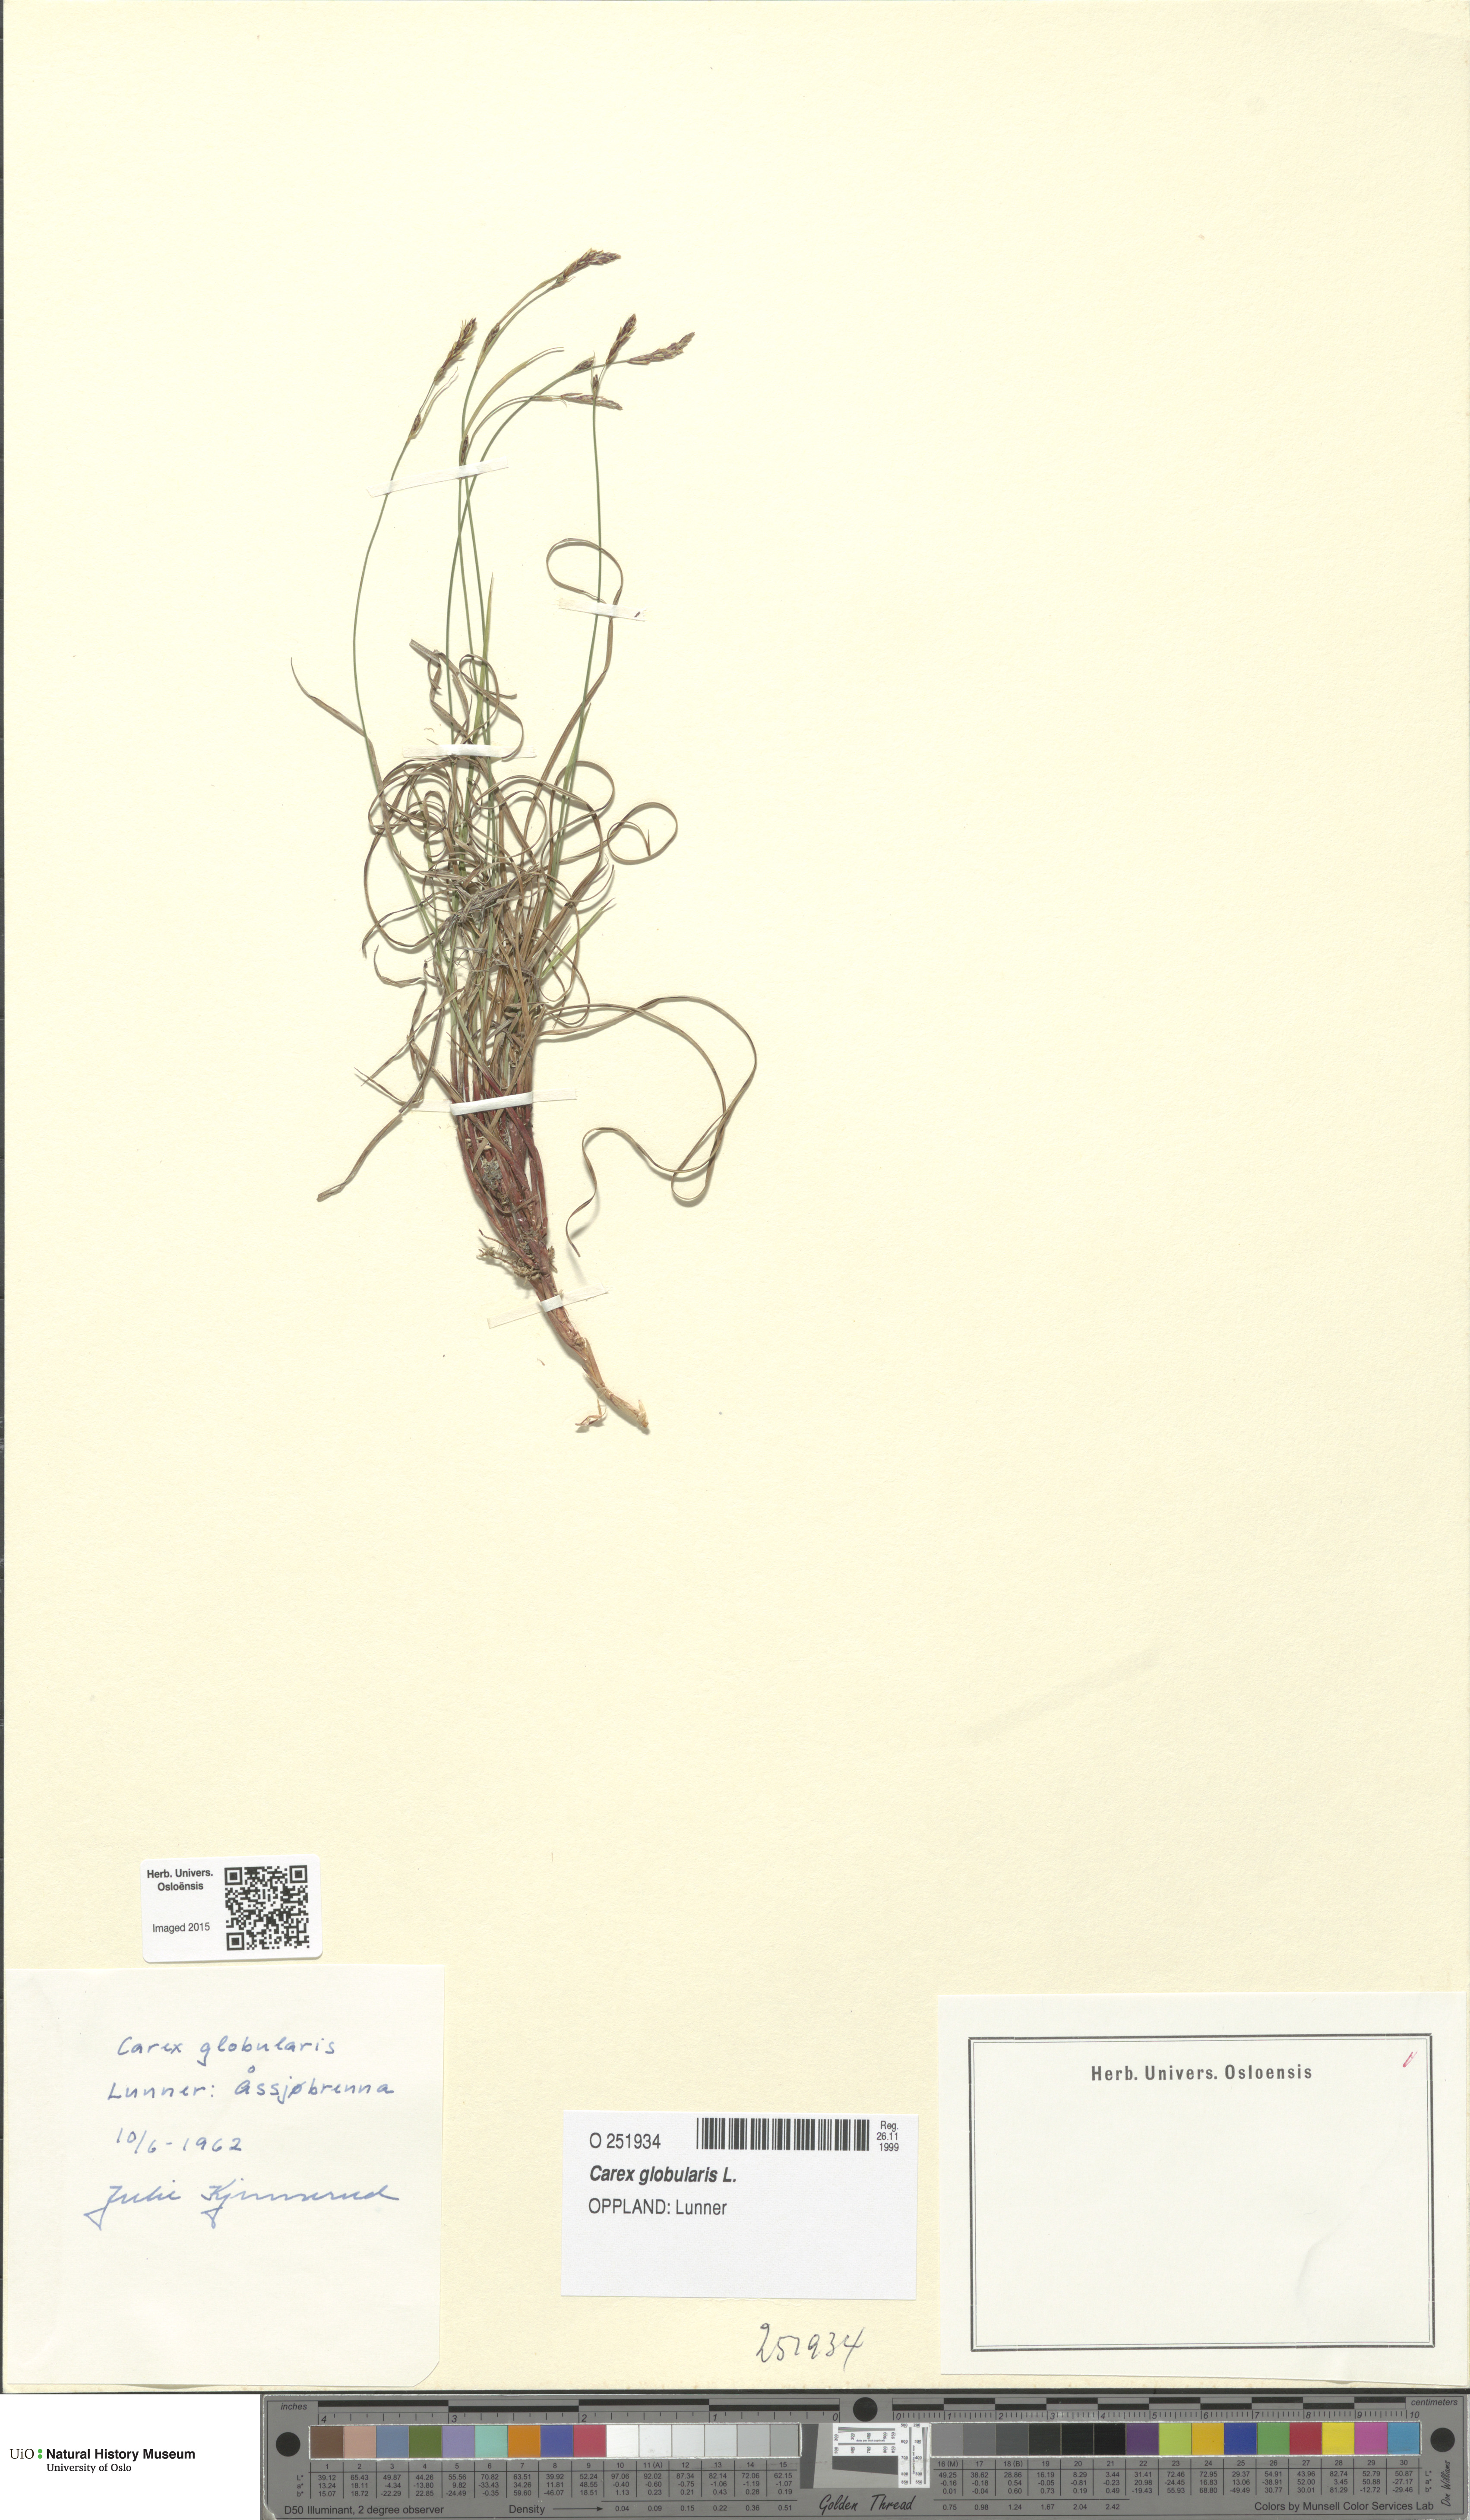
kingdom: Plantae
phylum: Tracheophyta
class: Liliopsida
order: Poales
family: Cyperaceae
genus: Carex
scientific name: Carex globularis
